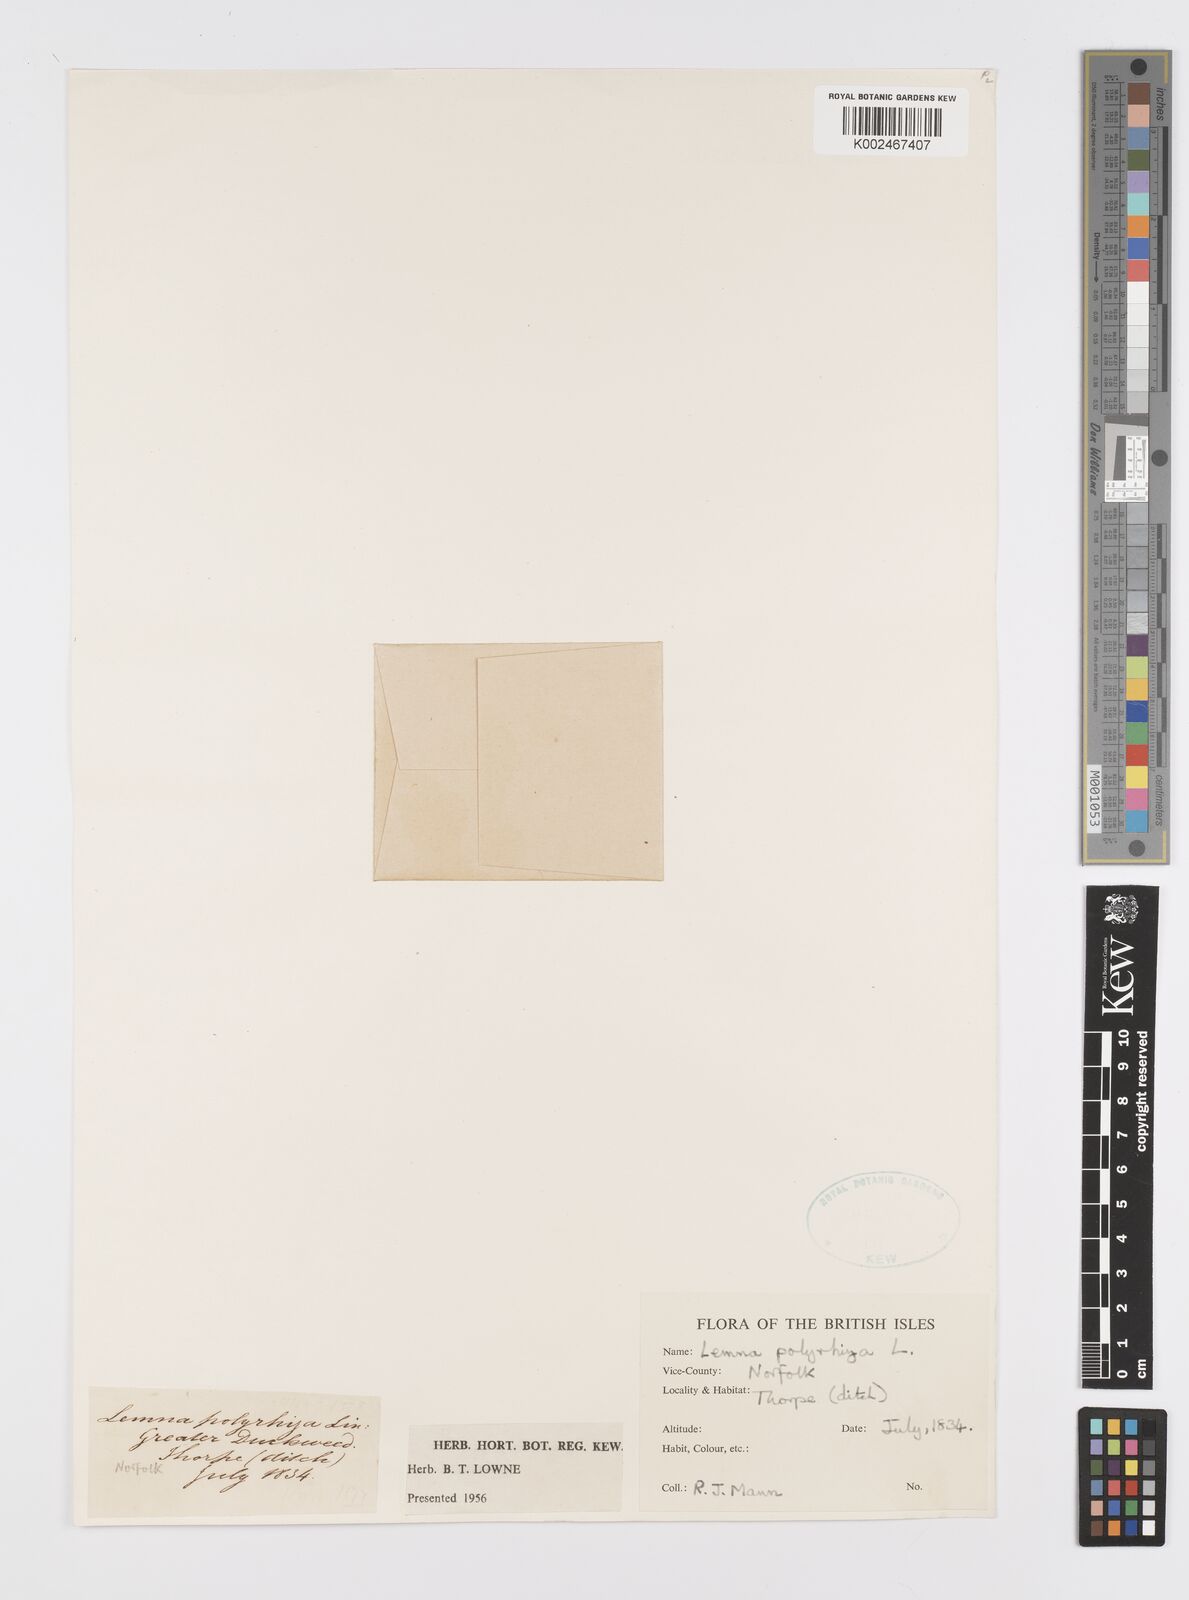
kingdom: Plantae
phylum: Tracheophyta
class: Liliopsida
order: Alismatales
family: Araceae
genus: Spirodela
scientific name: Spirodela polyrhiza
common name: Great duckweed
